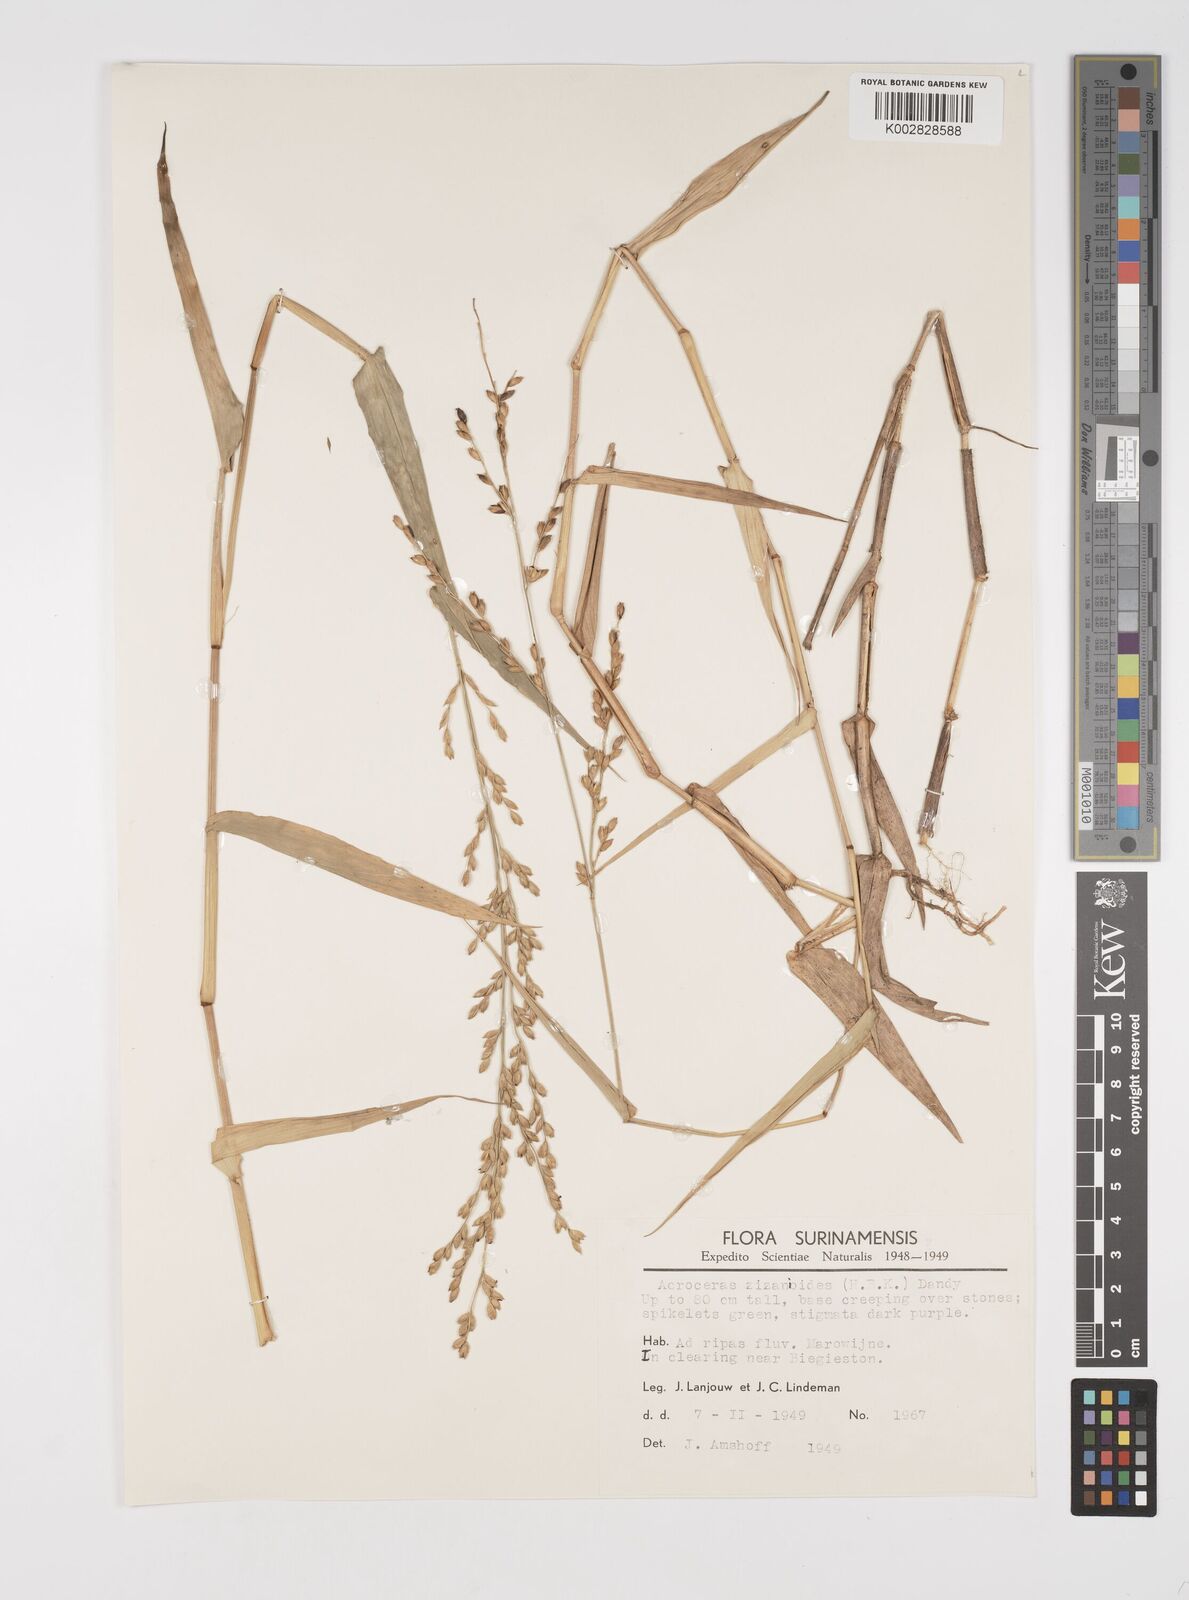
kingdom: Plantae
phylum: Tracheophyta
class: Liliopsida
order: Poales
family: Poaceae
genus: Acroceras
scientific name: Acroceras zizanioides
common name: Oat grass
